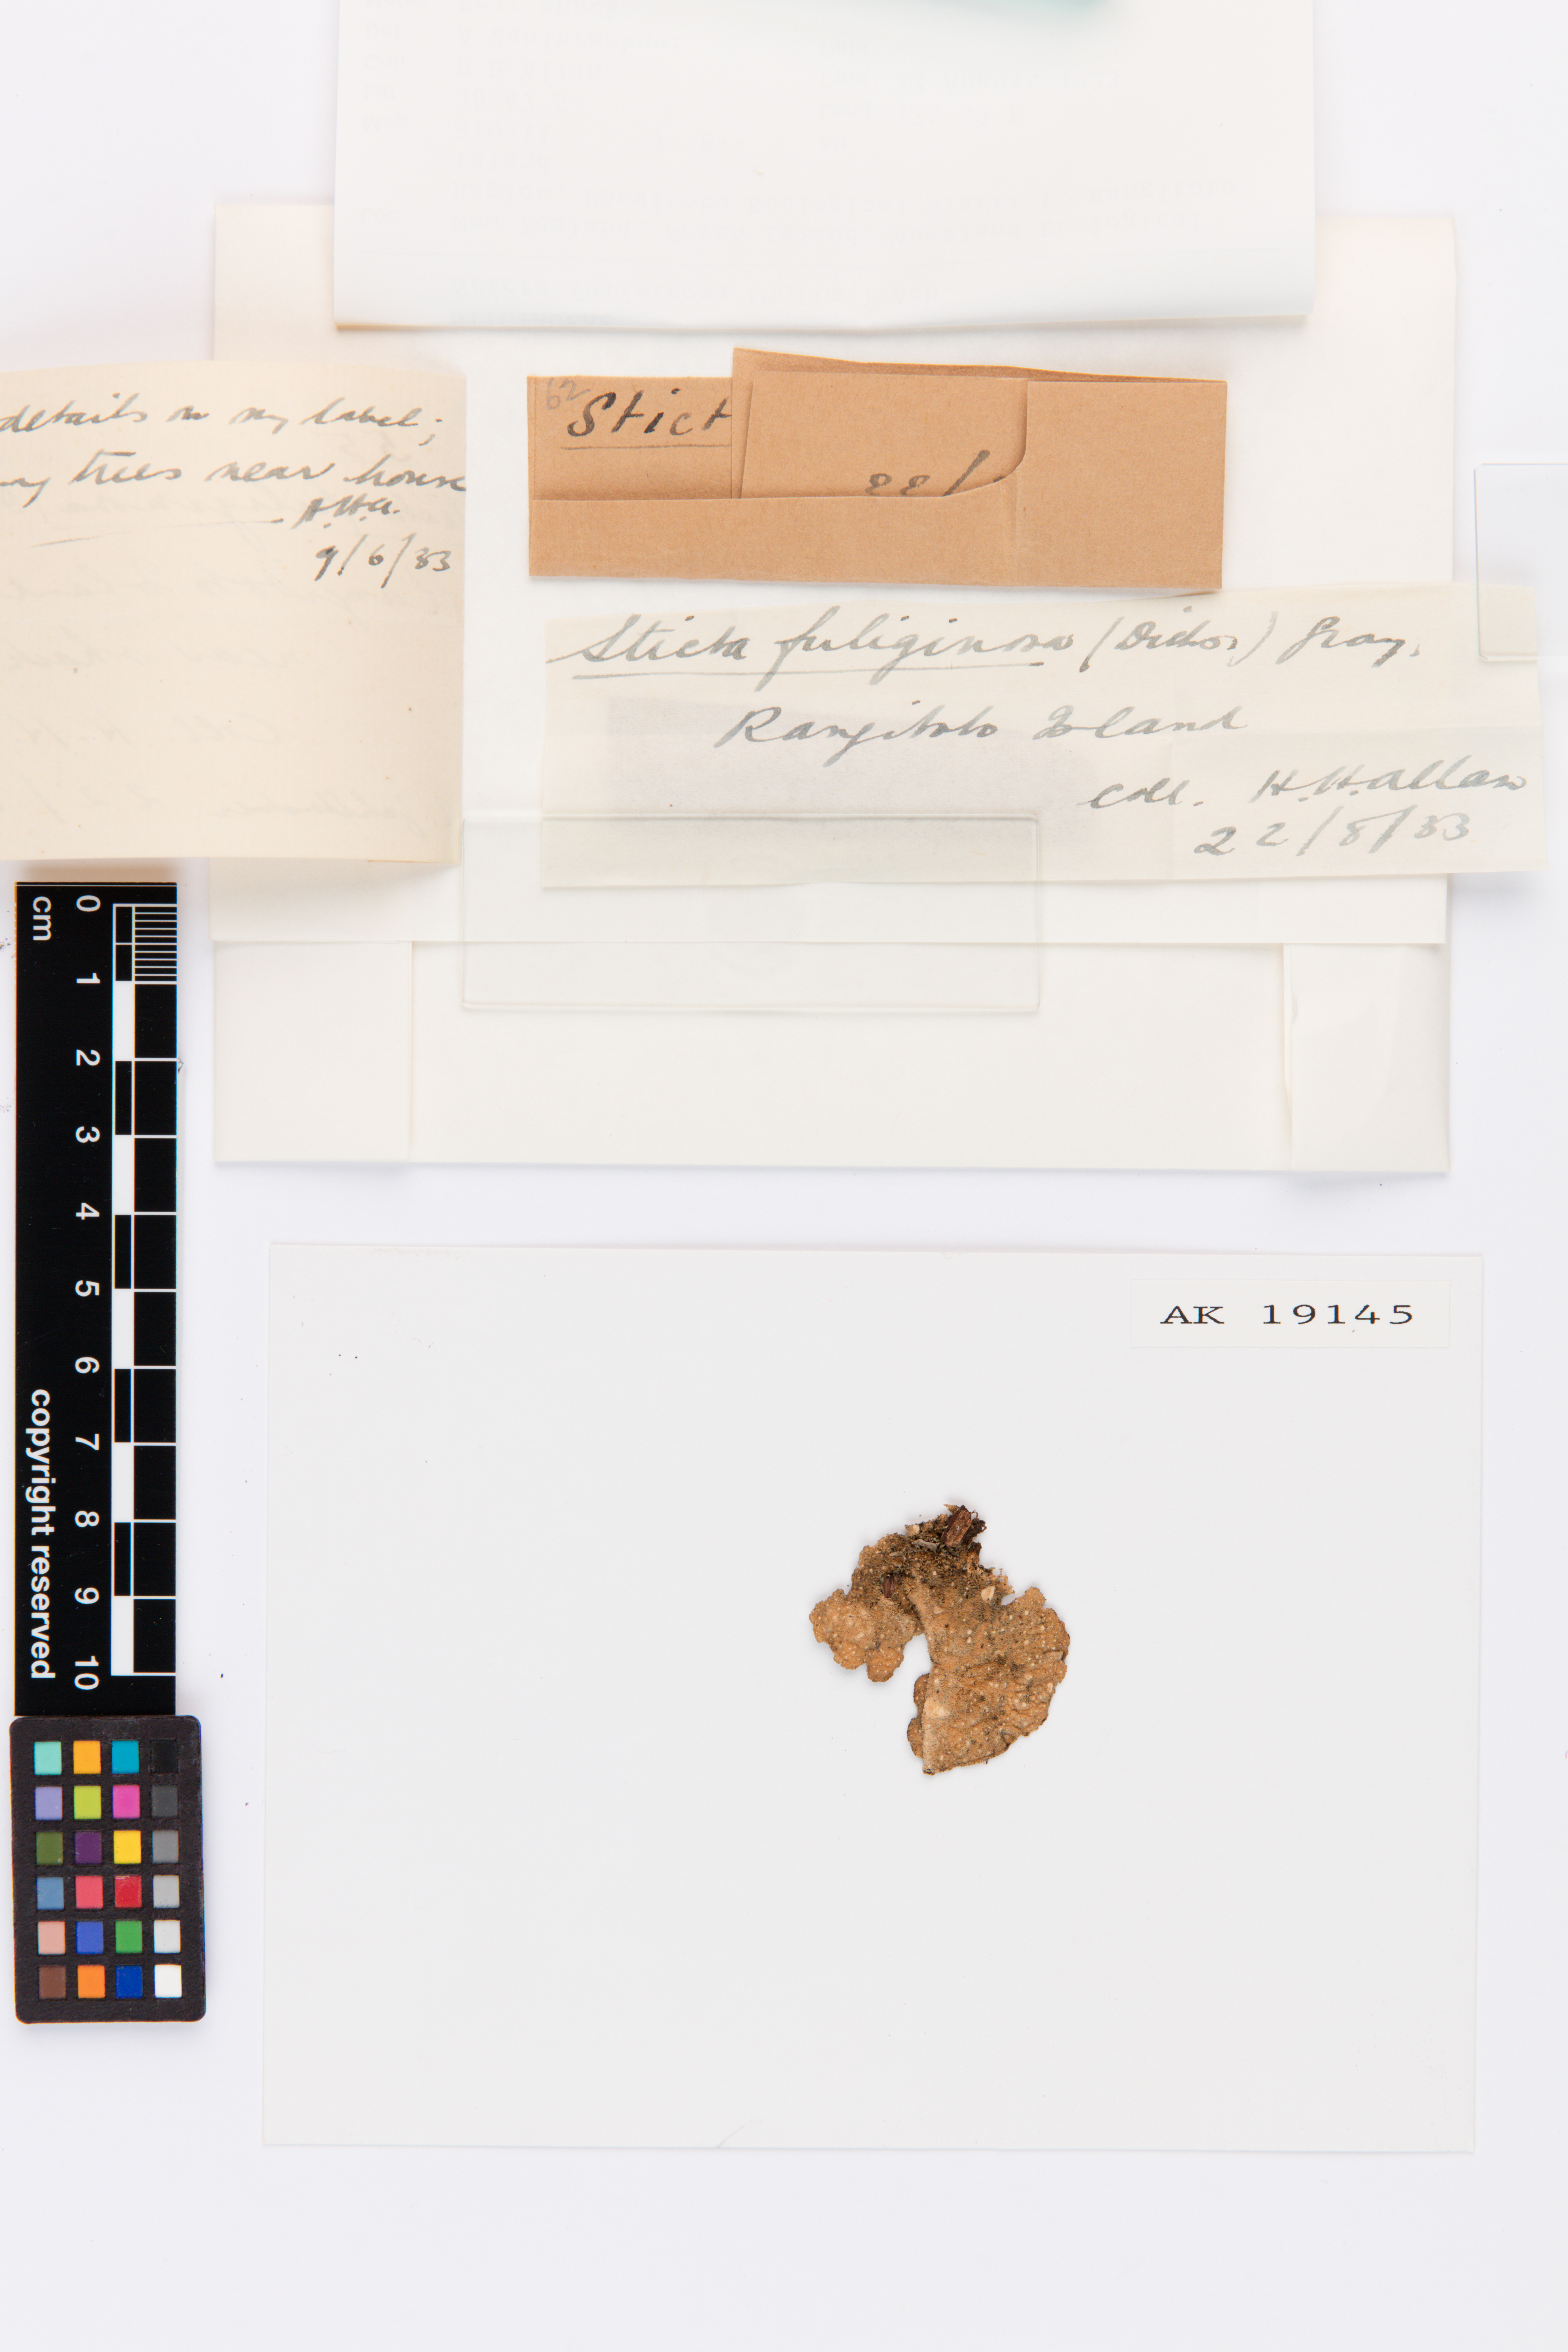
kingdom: Fungi
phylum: Ascomycota
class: Lecanoromycetes
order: Peltigerales
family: Lobariaceae
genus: Sticta
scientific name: Sticta fuliginosa
